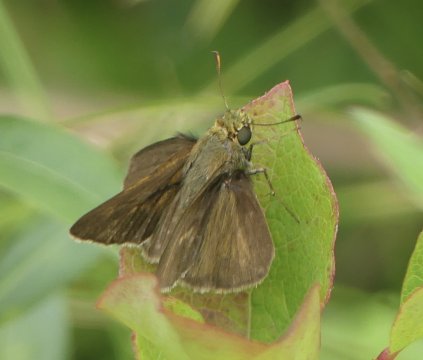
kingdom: Animalia
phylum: Arthropoda
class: Insecta
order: Lepidoptera
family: Hesperiidae
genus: Euphyes
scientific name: Euphyes vestris
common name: Dun Skipper
